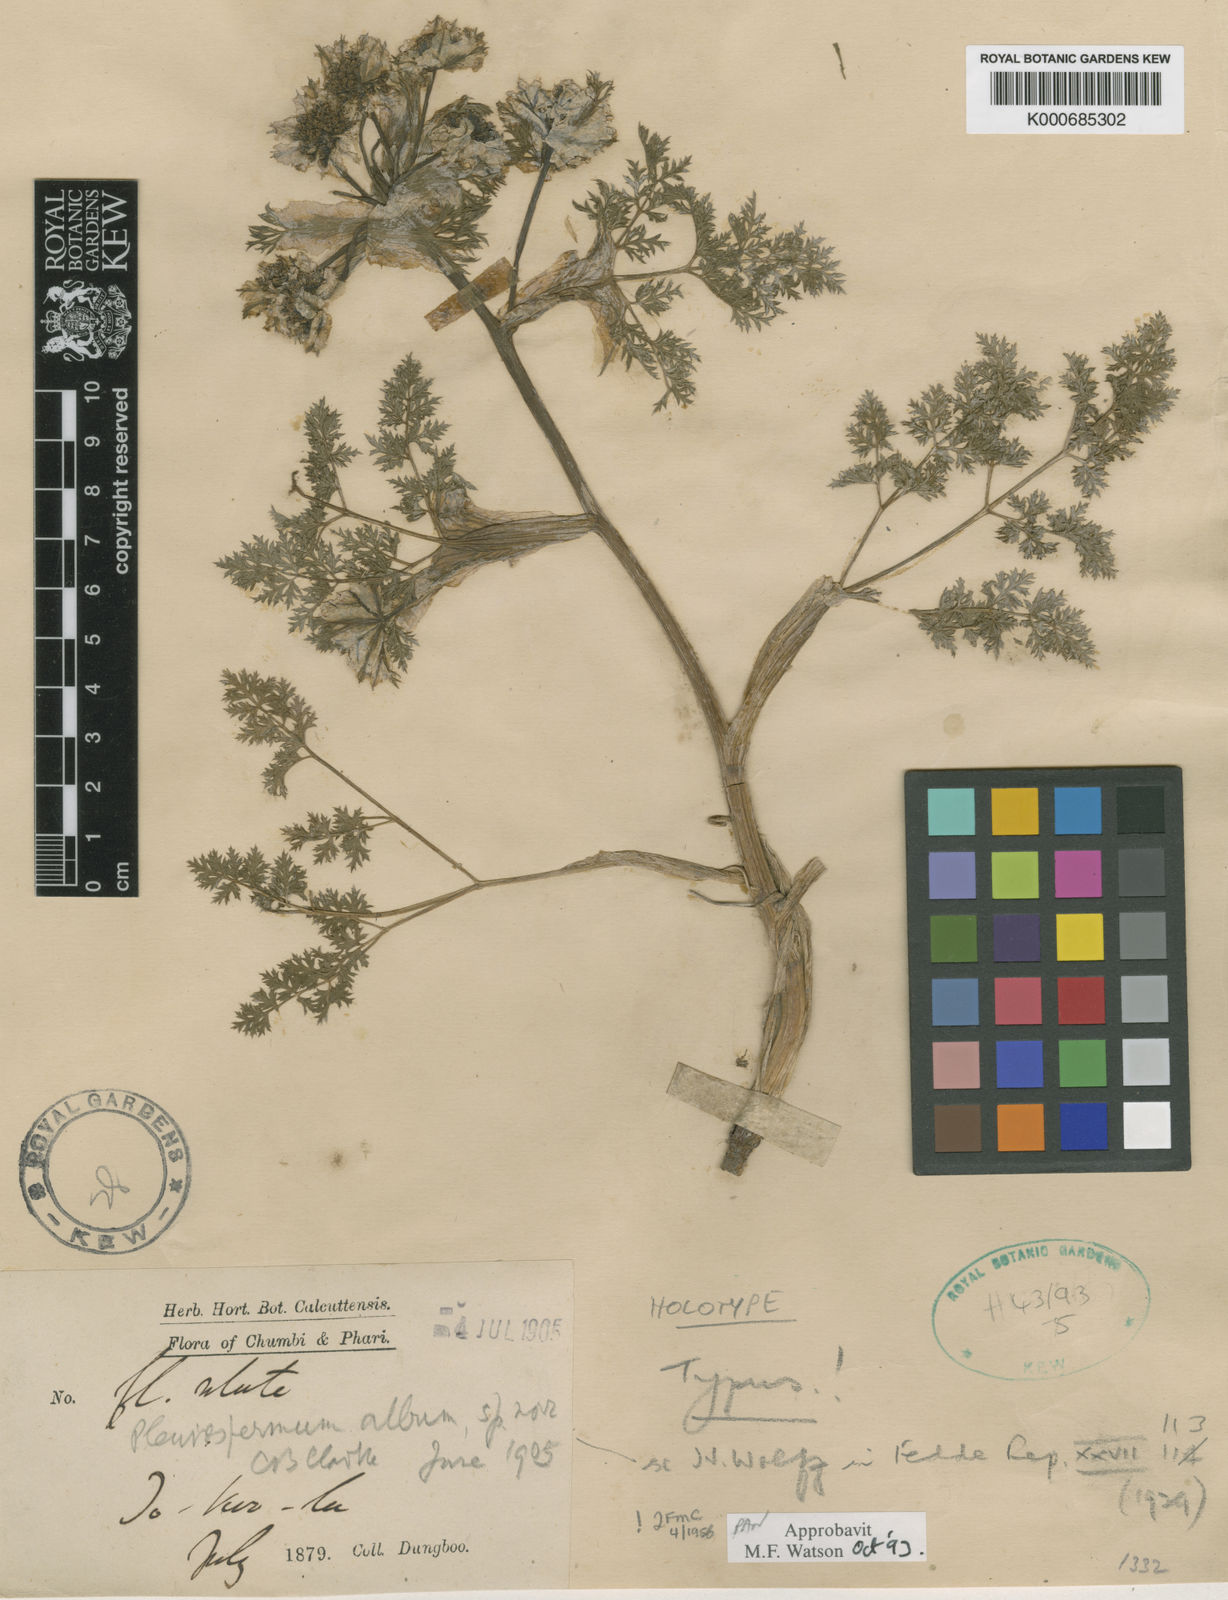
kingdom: Plantae
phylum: Tracheophyta
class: Magnoliopsida
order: Apiales
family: Apiaceae
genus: Hymenidium
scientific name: Hymenidium album
